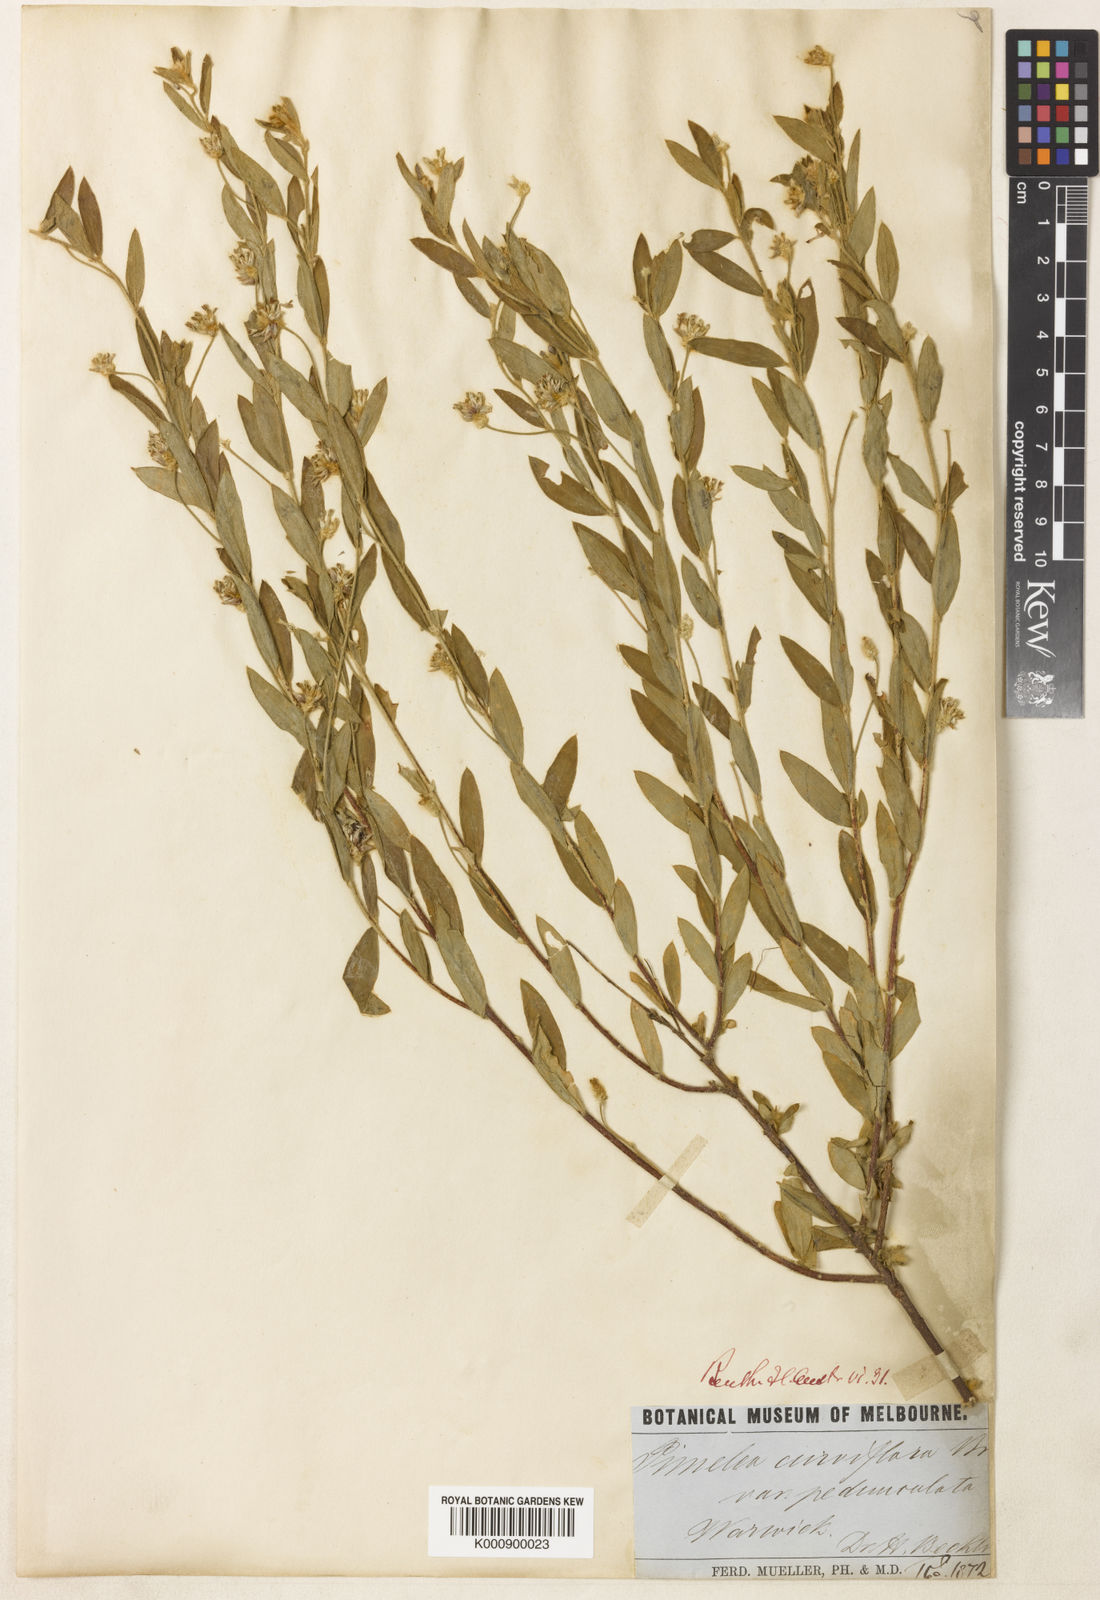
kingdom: Plantae
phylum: Tracheophyta
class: Magnoliopsida
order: Malvales
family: Thymelaeaceae
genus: Pimelea
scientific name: Pimelea curviflora
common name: Curved riceflower
